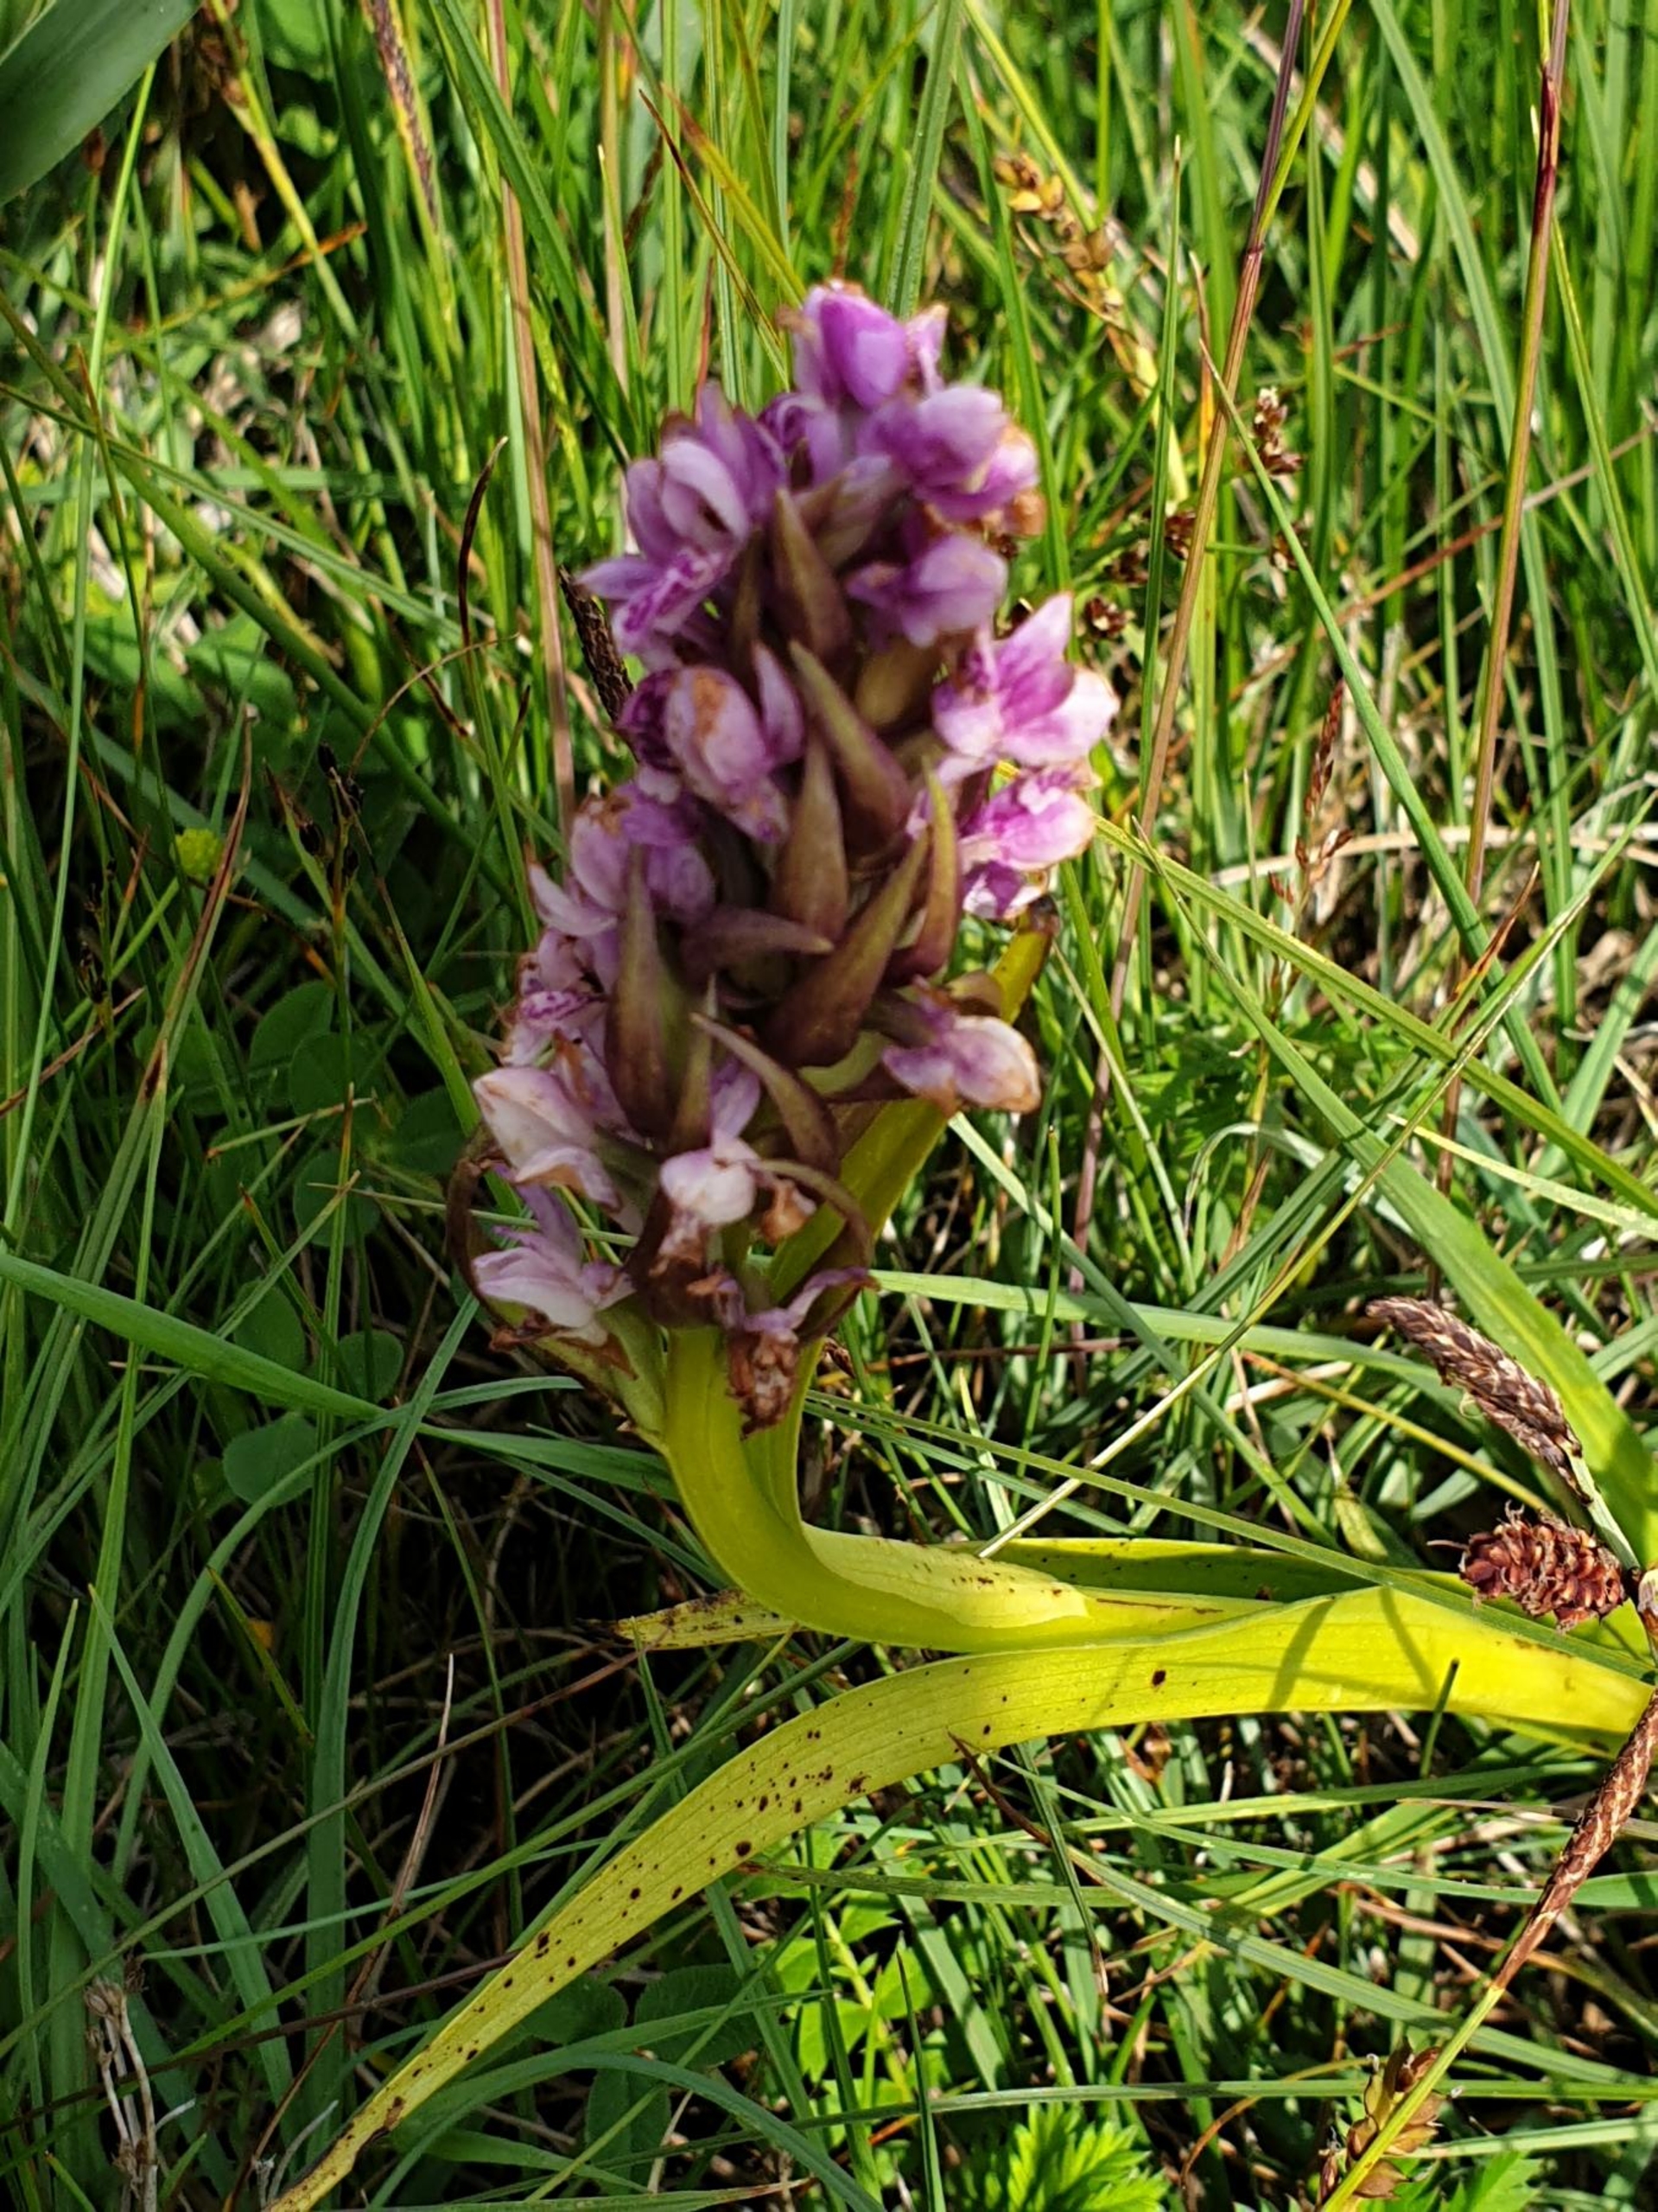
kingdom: Plantae
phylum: Tracheophyta
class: Liliopsida
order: Asparagales
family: Orchidaceae
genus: Dactylorhiza
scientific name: Dactylorhiza incarnata
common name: Kødfarvet gøgeurt
